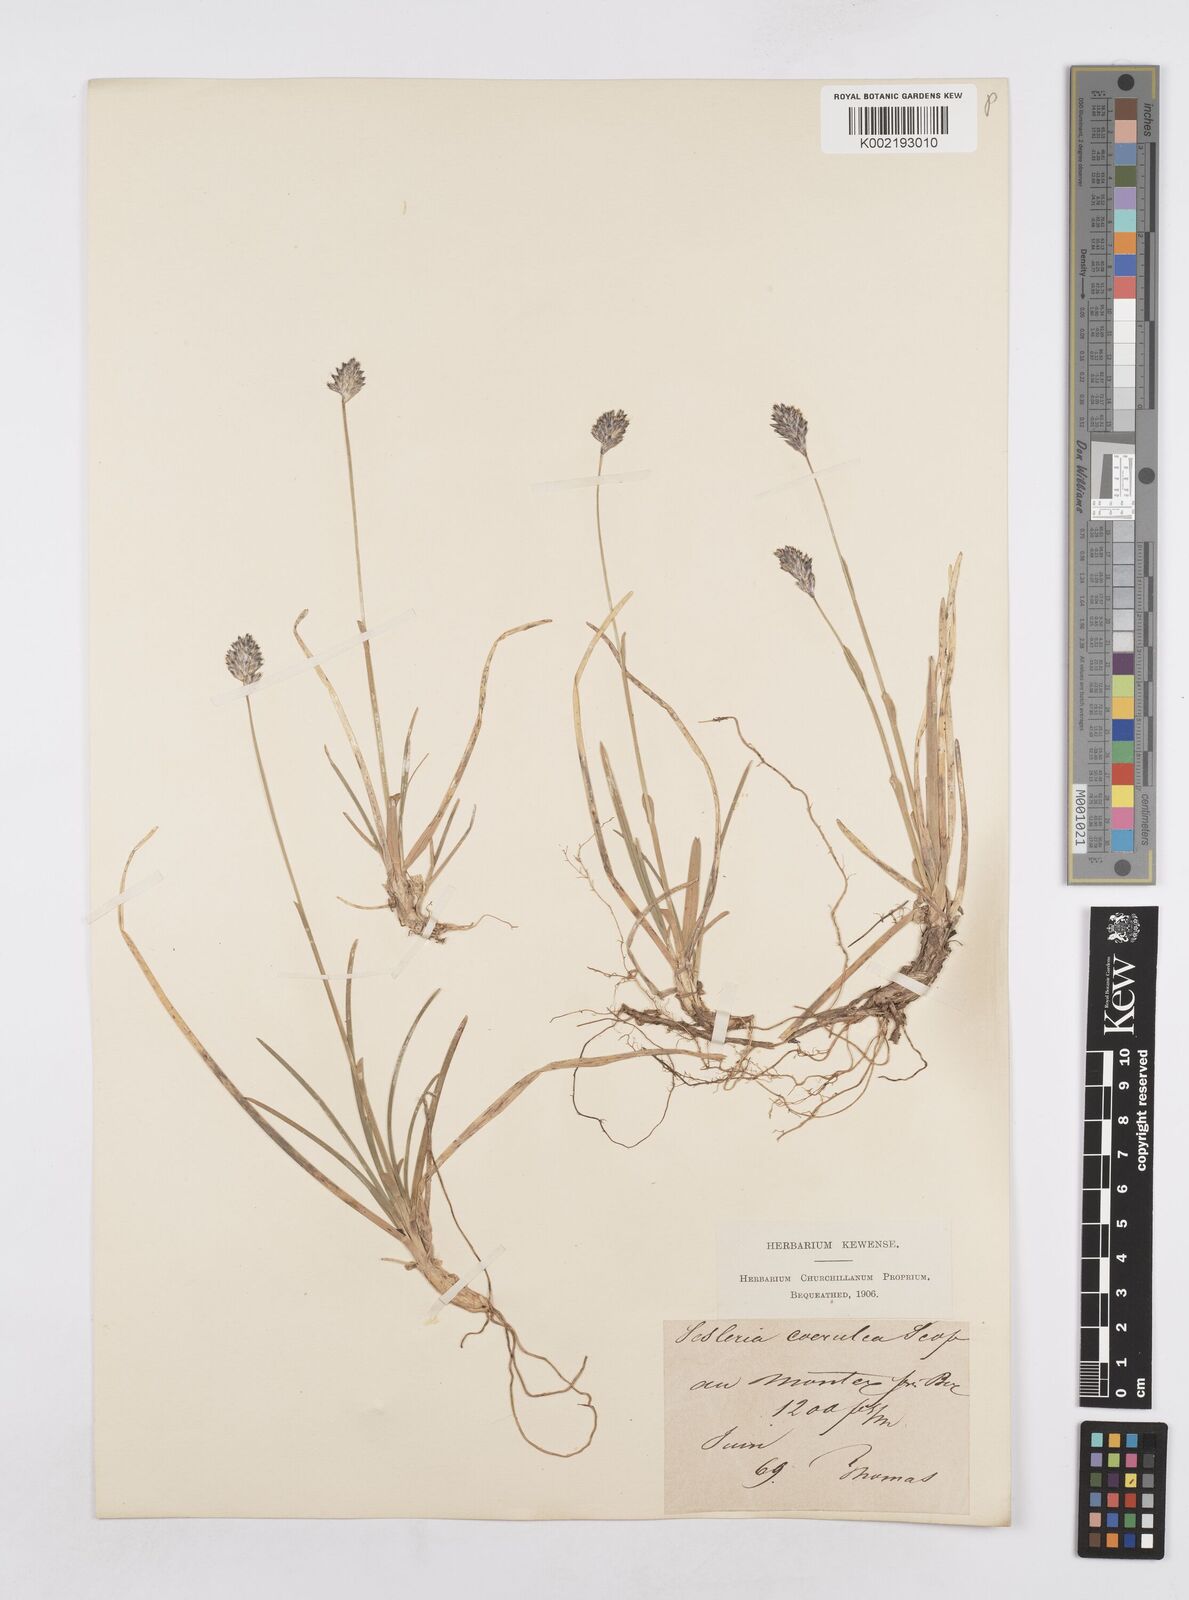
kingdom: Plantae
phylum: Tracheophyta
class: Liliopsida
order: Poales
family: Poaceae
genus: Sesleria
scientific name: Sesleria caerulea
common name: Blue moor-grass
